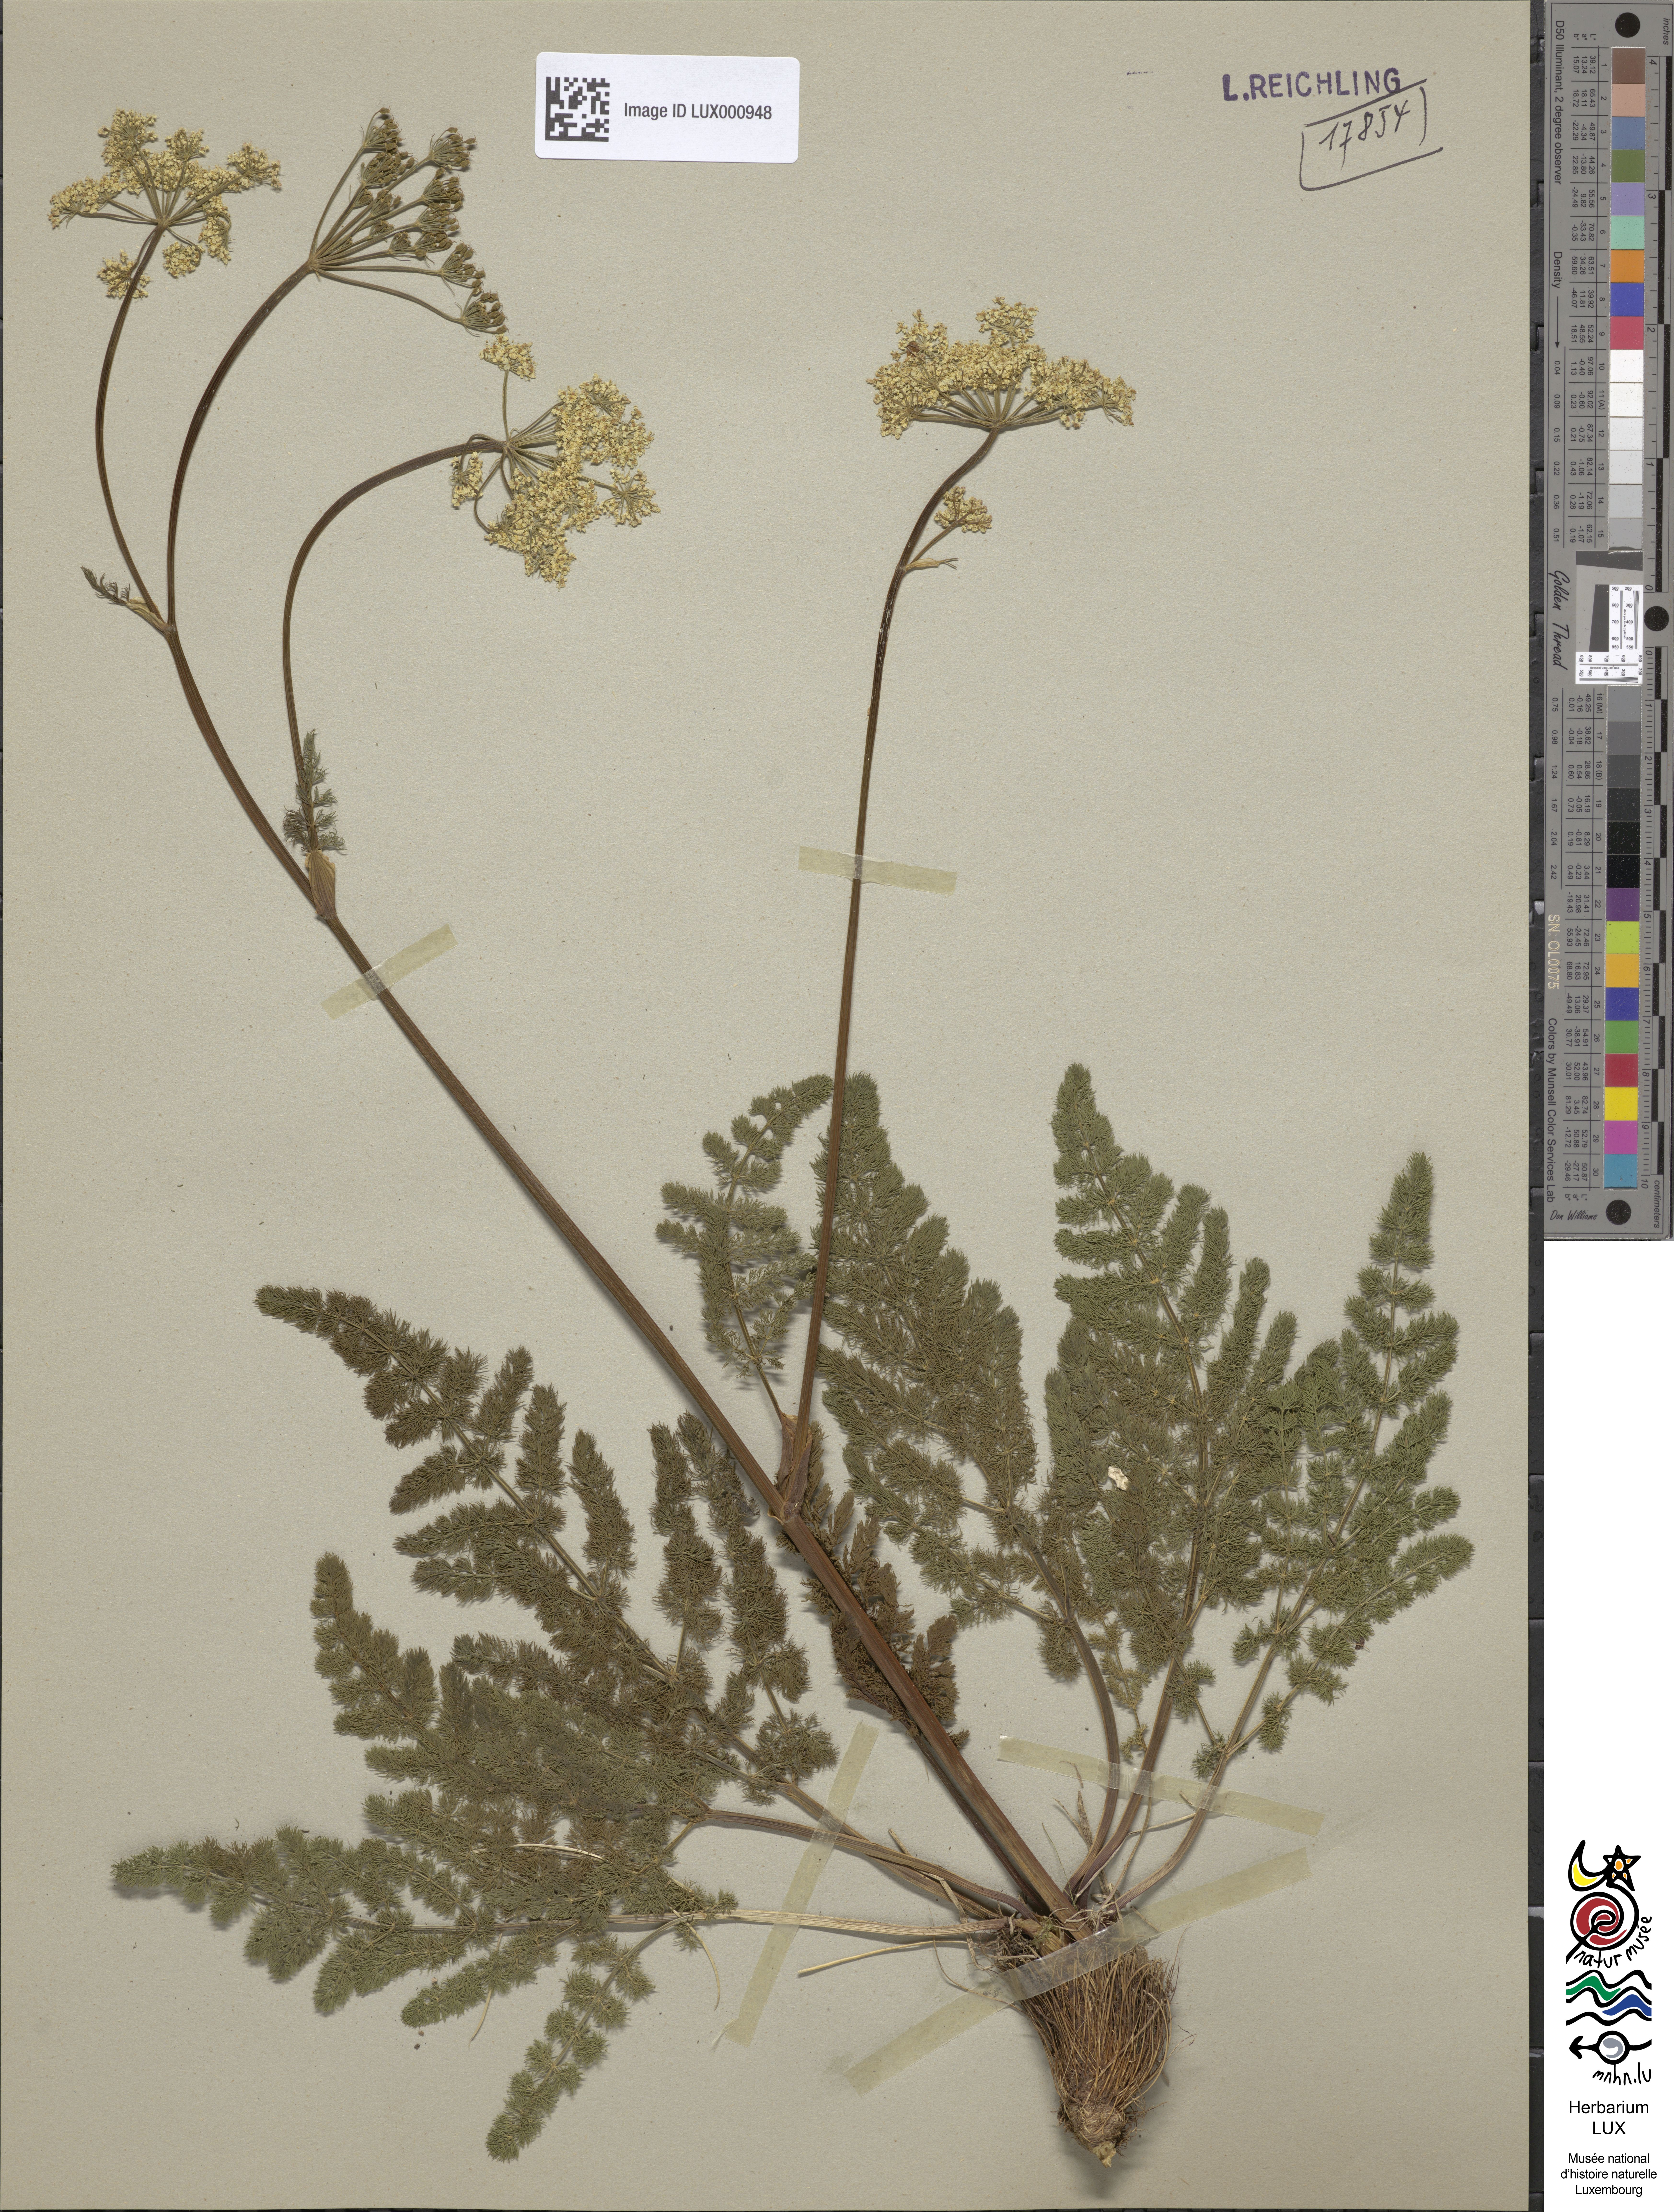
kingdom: Plantae
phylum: Tracheophyta
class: Magnoliopsida
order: Apiales
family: Apiaceae
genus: Meum
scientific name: Meum athamanticum
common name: Spignel
